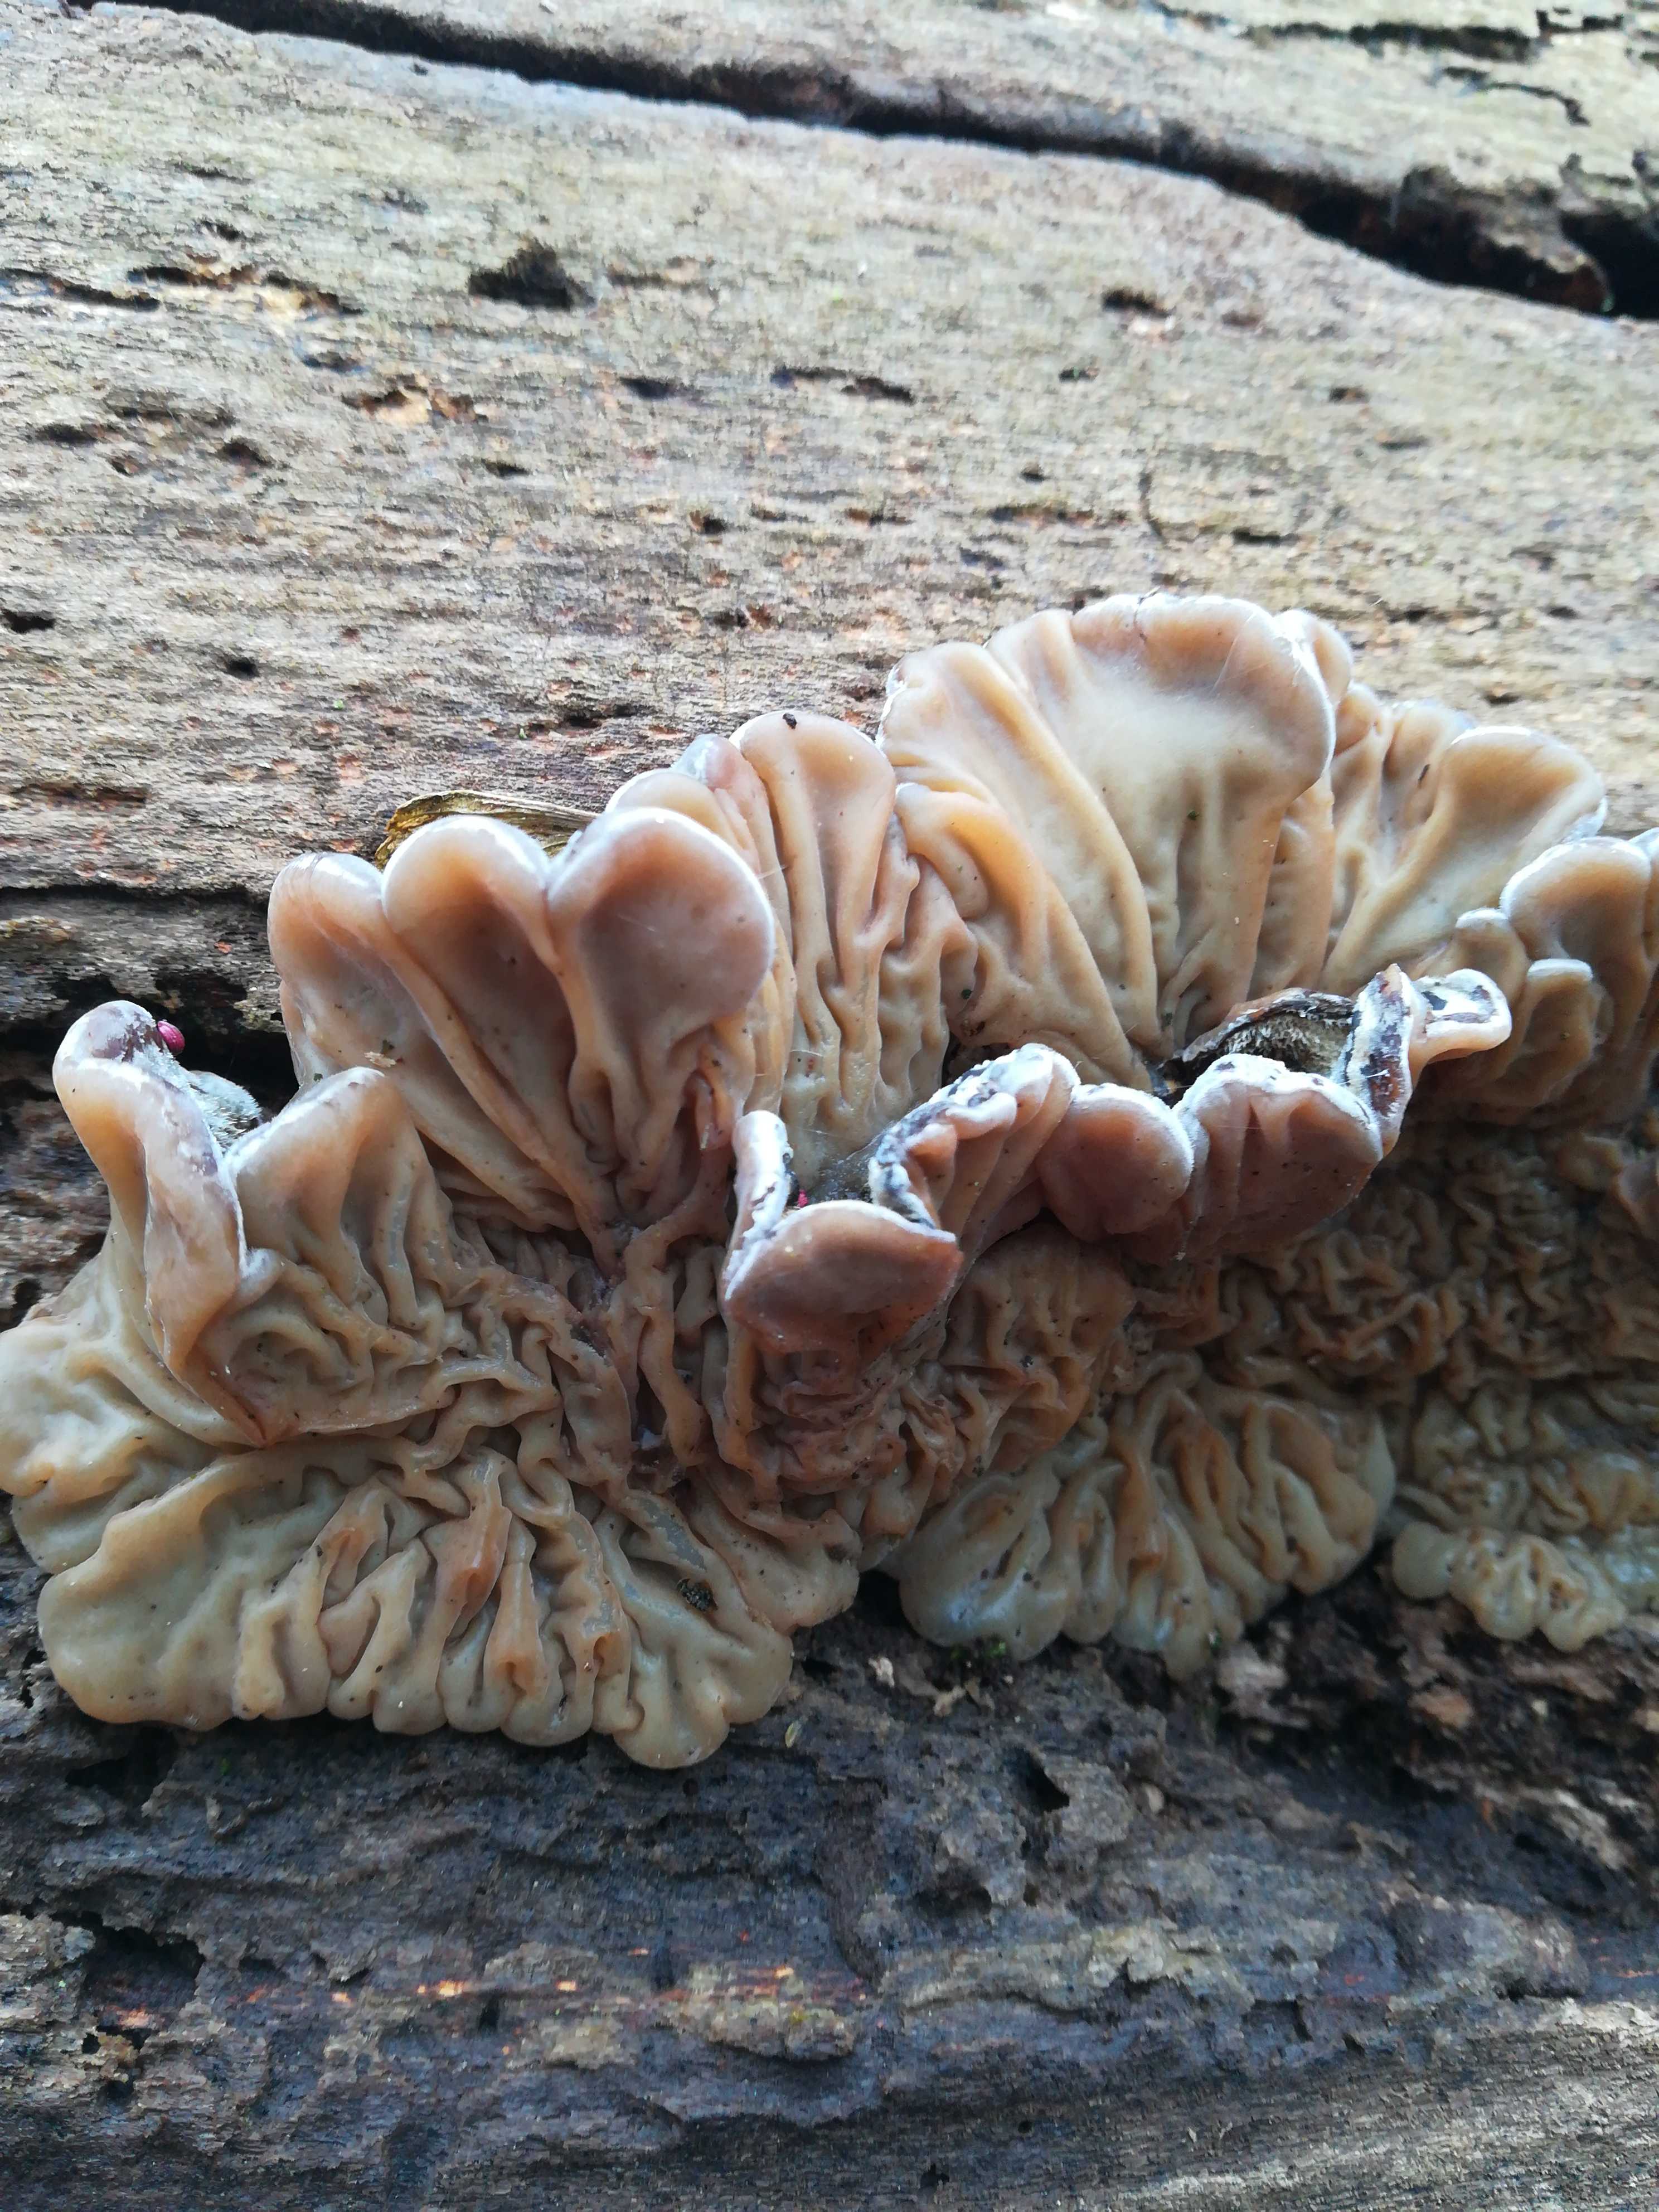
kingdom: Fungi
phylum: Basidiomycota
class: Agaricomycetes
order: Auriculariales
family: Auriculariaceae
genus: Auricularia
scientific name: Auricularia mesenterica
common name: håret judasøre
